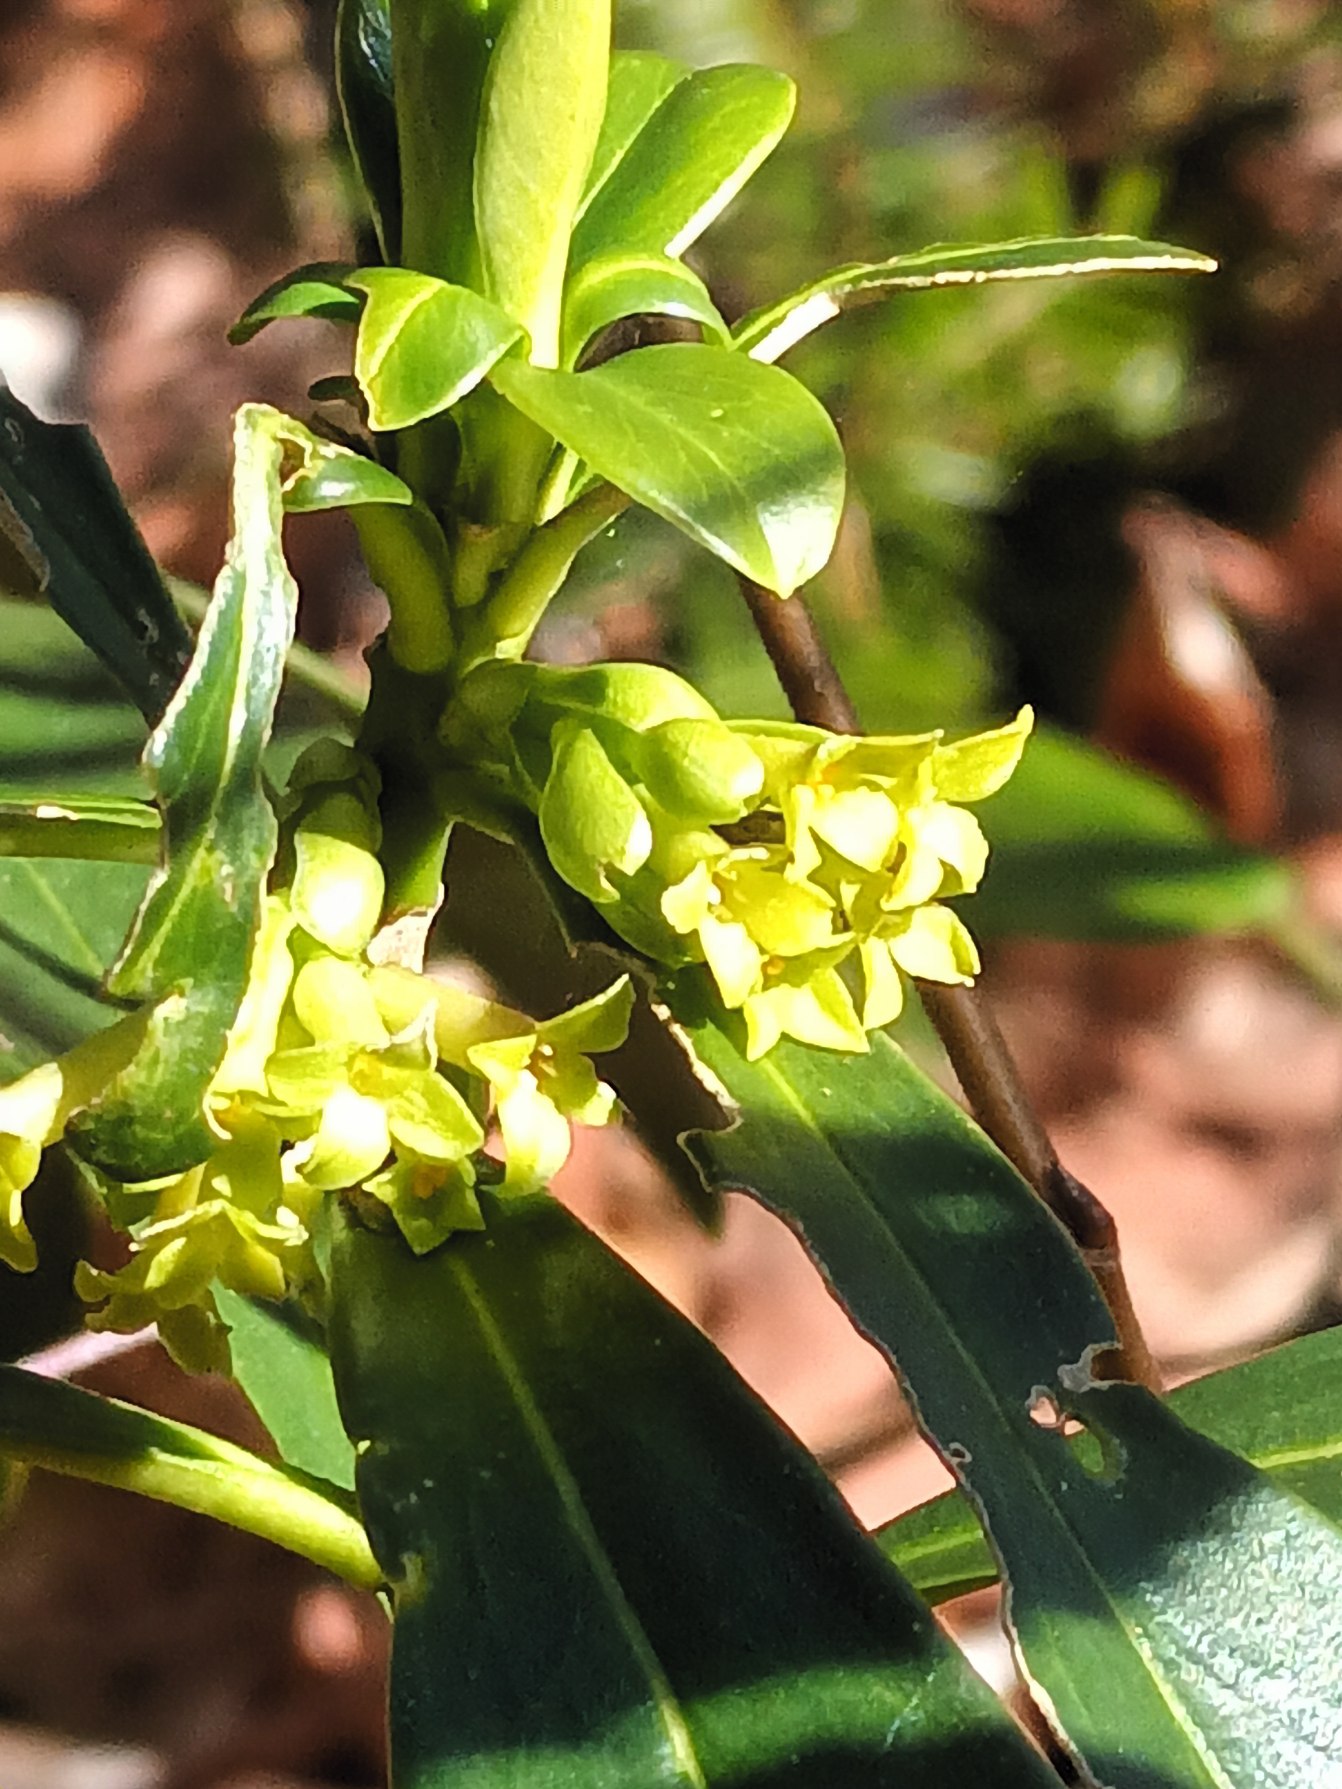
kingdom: Plantae
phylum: Tracheophyta
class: Magnoliopsida
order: Malvales
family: Thymelaeaceae
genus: Daphne
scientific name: Daphne laureola
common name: Laurbær-dafne
